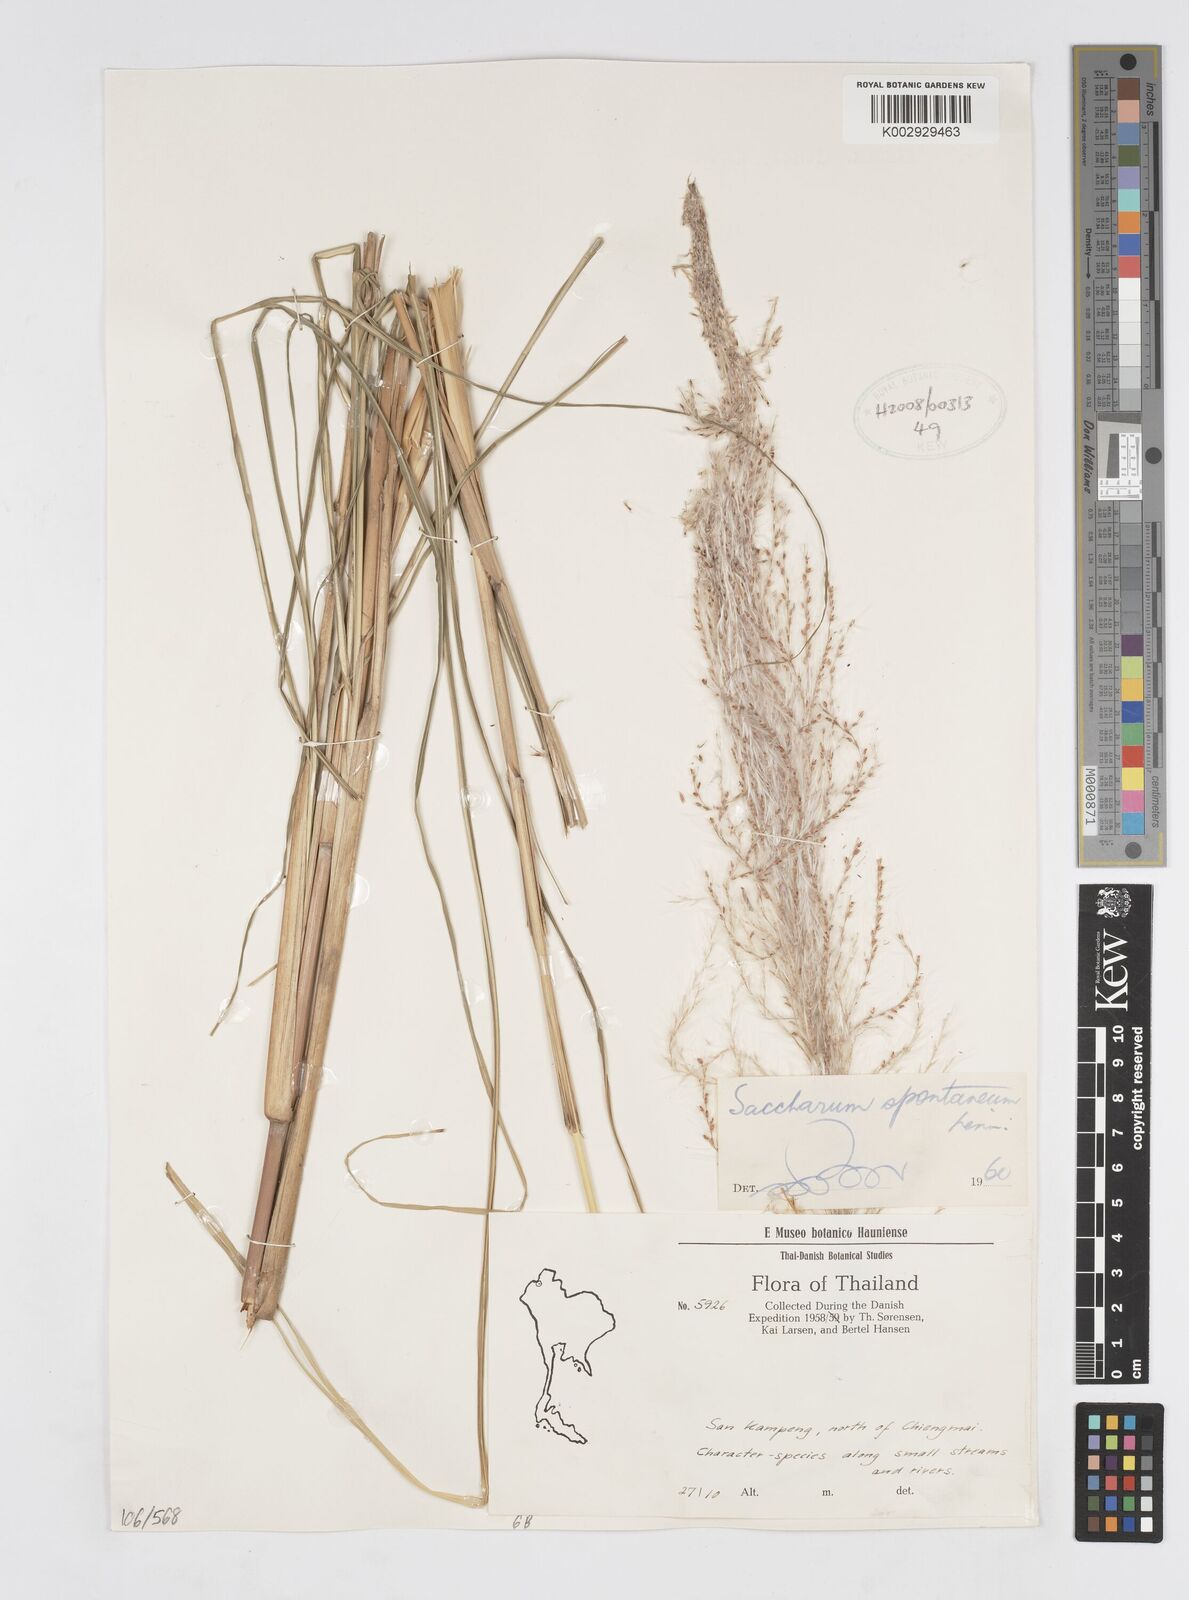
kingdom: Plantae
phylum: Tracheophyta
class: Liliopsida
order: Poales
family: Poaceae
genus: Saccharum
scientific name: Saccharum spontaneum
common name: Wild sugarcane
